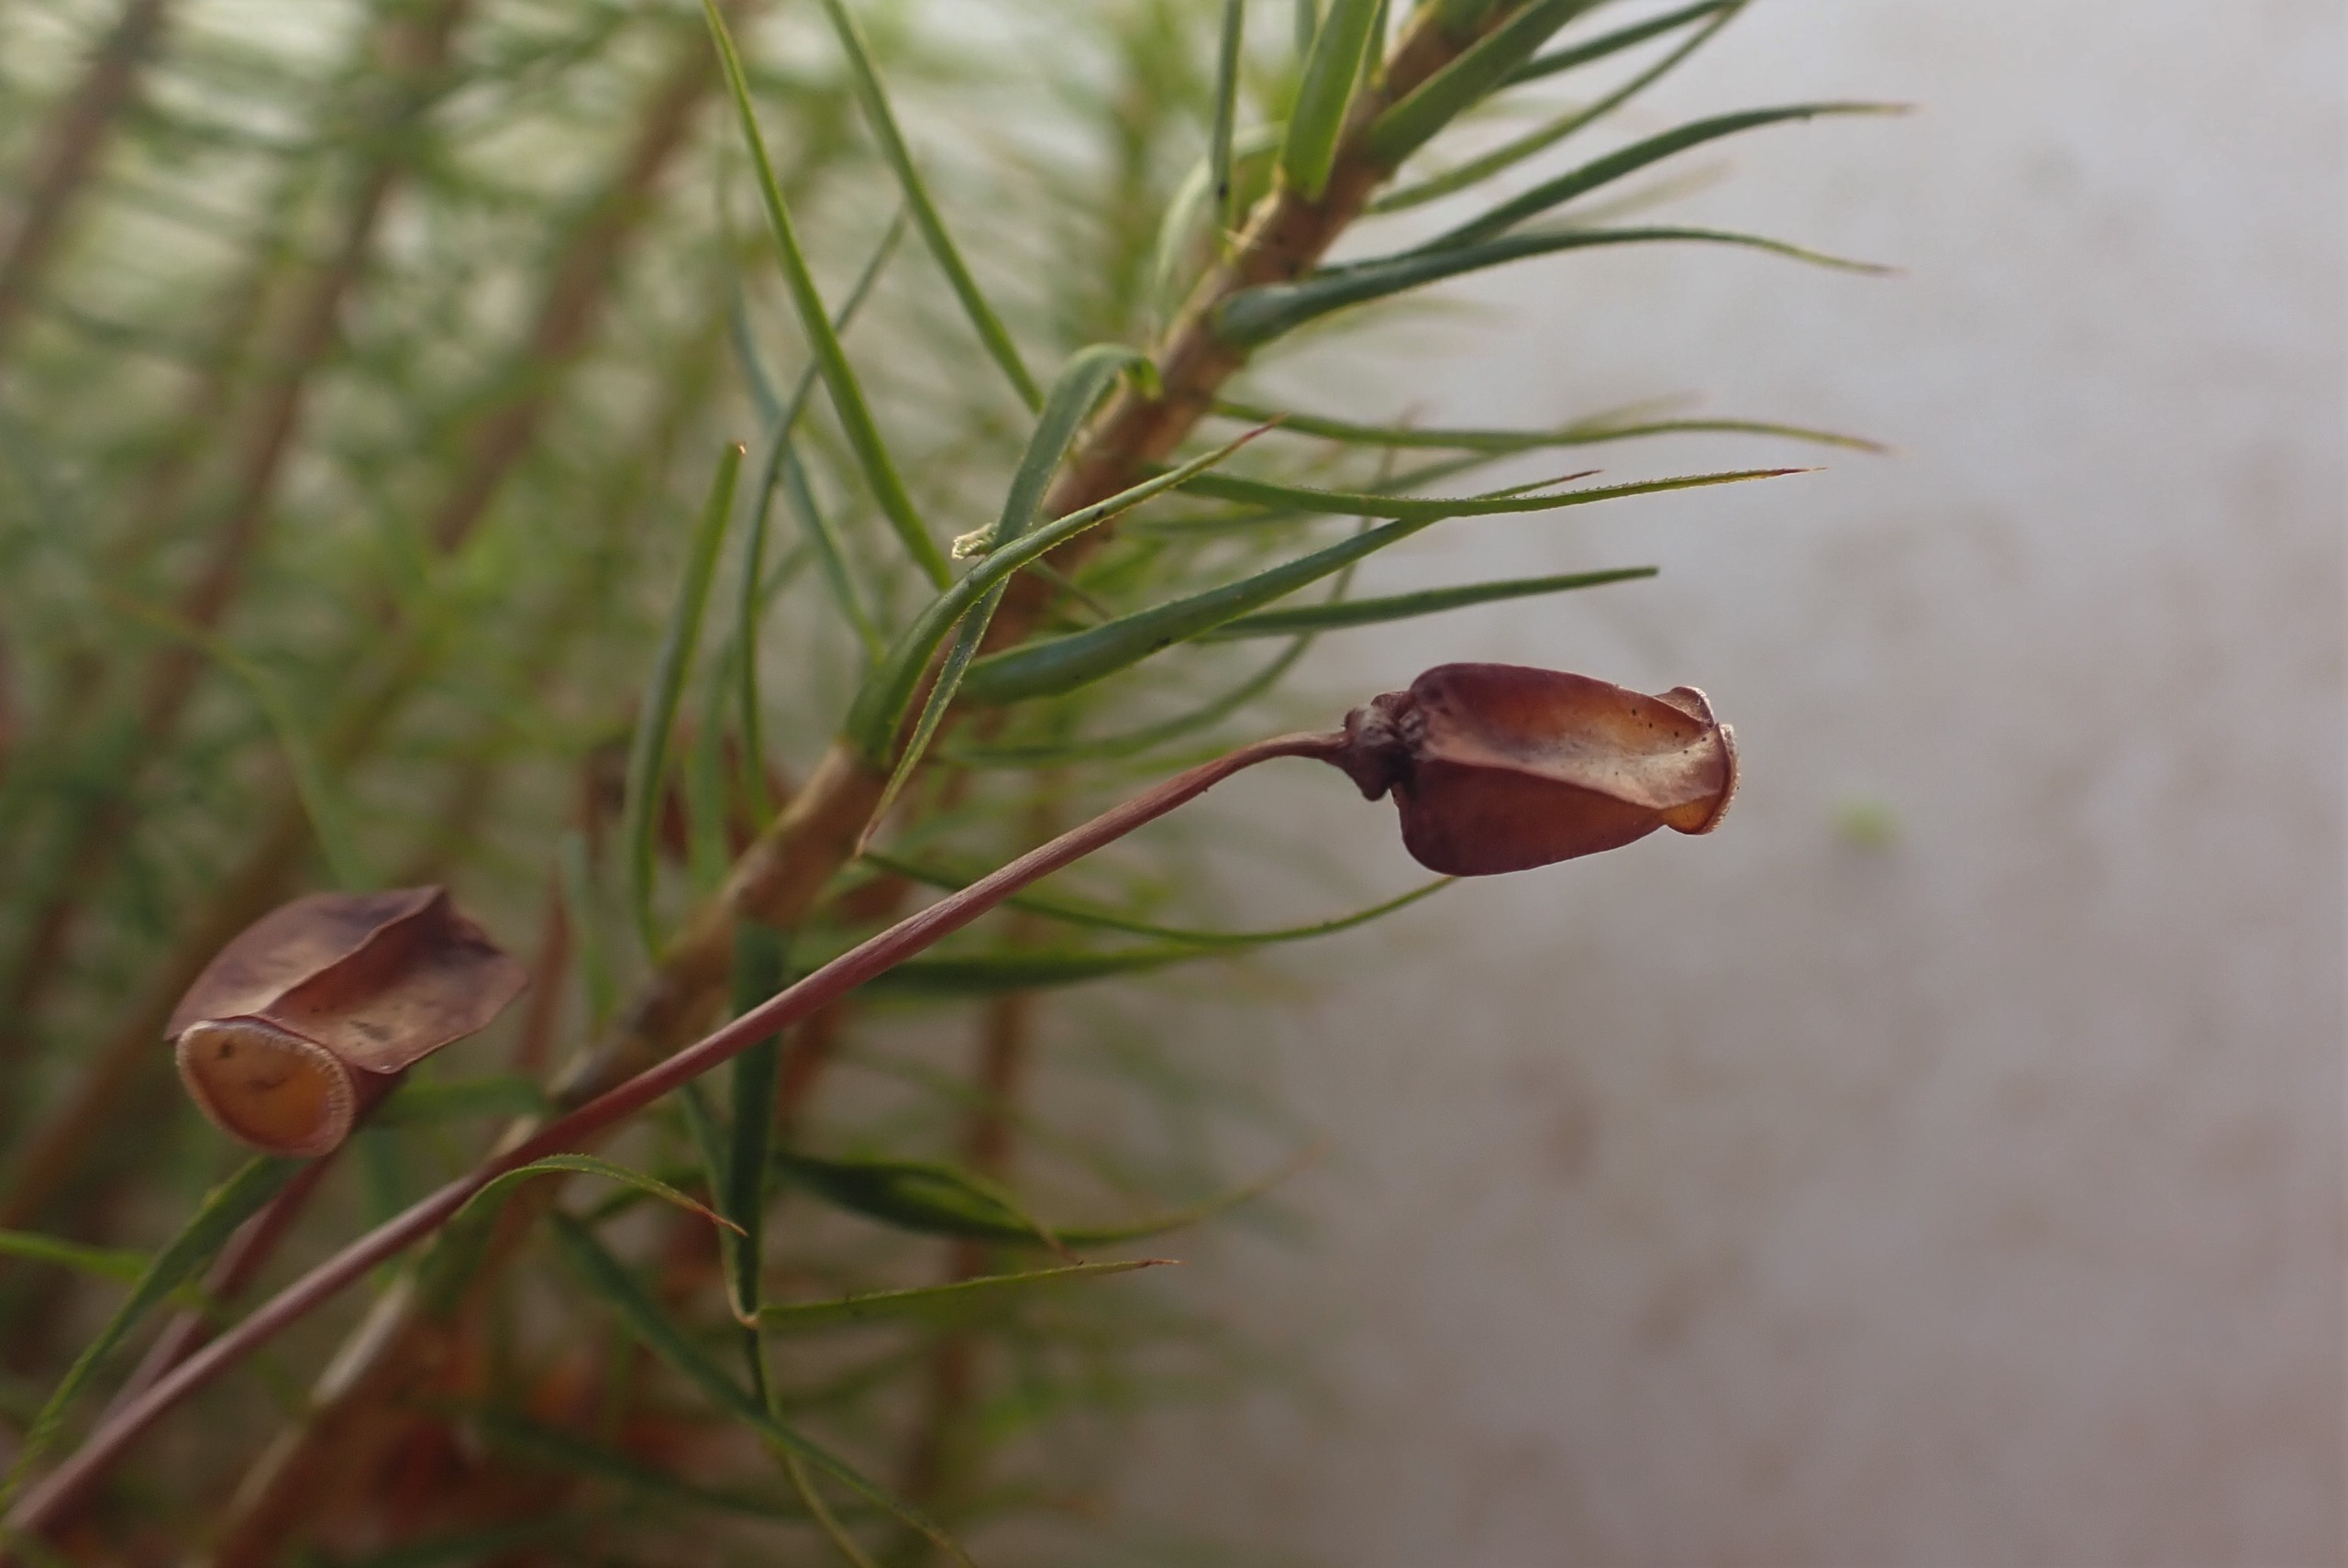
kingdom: Plantae
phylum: Bryophyta
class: Polytrichopsida
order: Polytrichales
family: Polytrichaceae
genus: Polytrichum
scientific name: Polytrichum commune
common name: Almindelig jomfruhår
